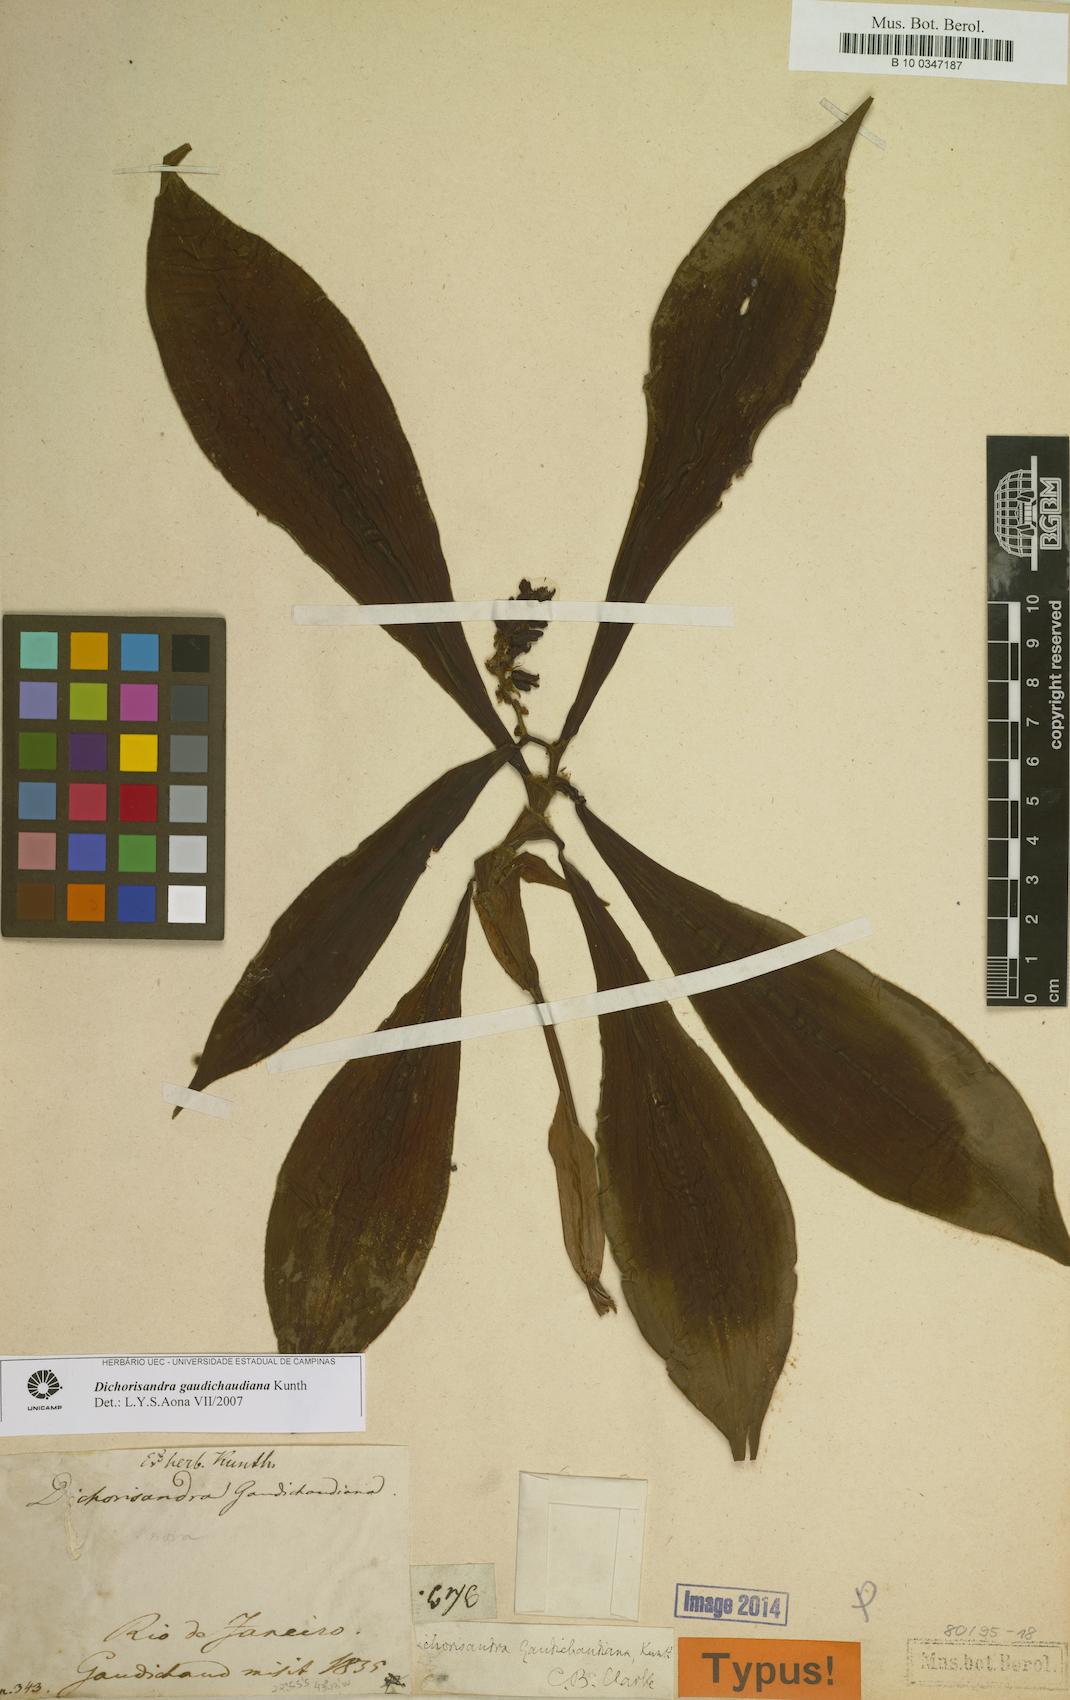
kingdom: Plantae
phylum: Tracheophyta
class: Liliopsida
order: Commelinales
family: Commelinaceae
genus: Dichorisandra
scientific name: Dichorisandra gaudichaudiana
